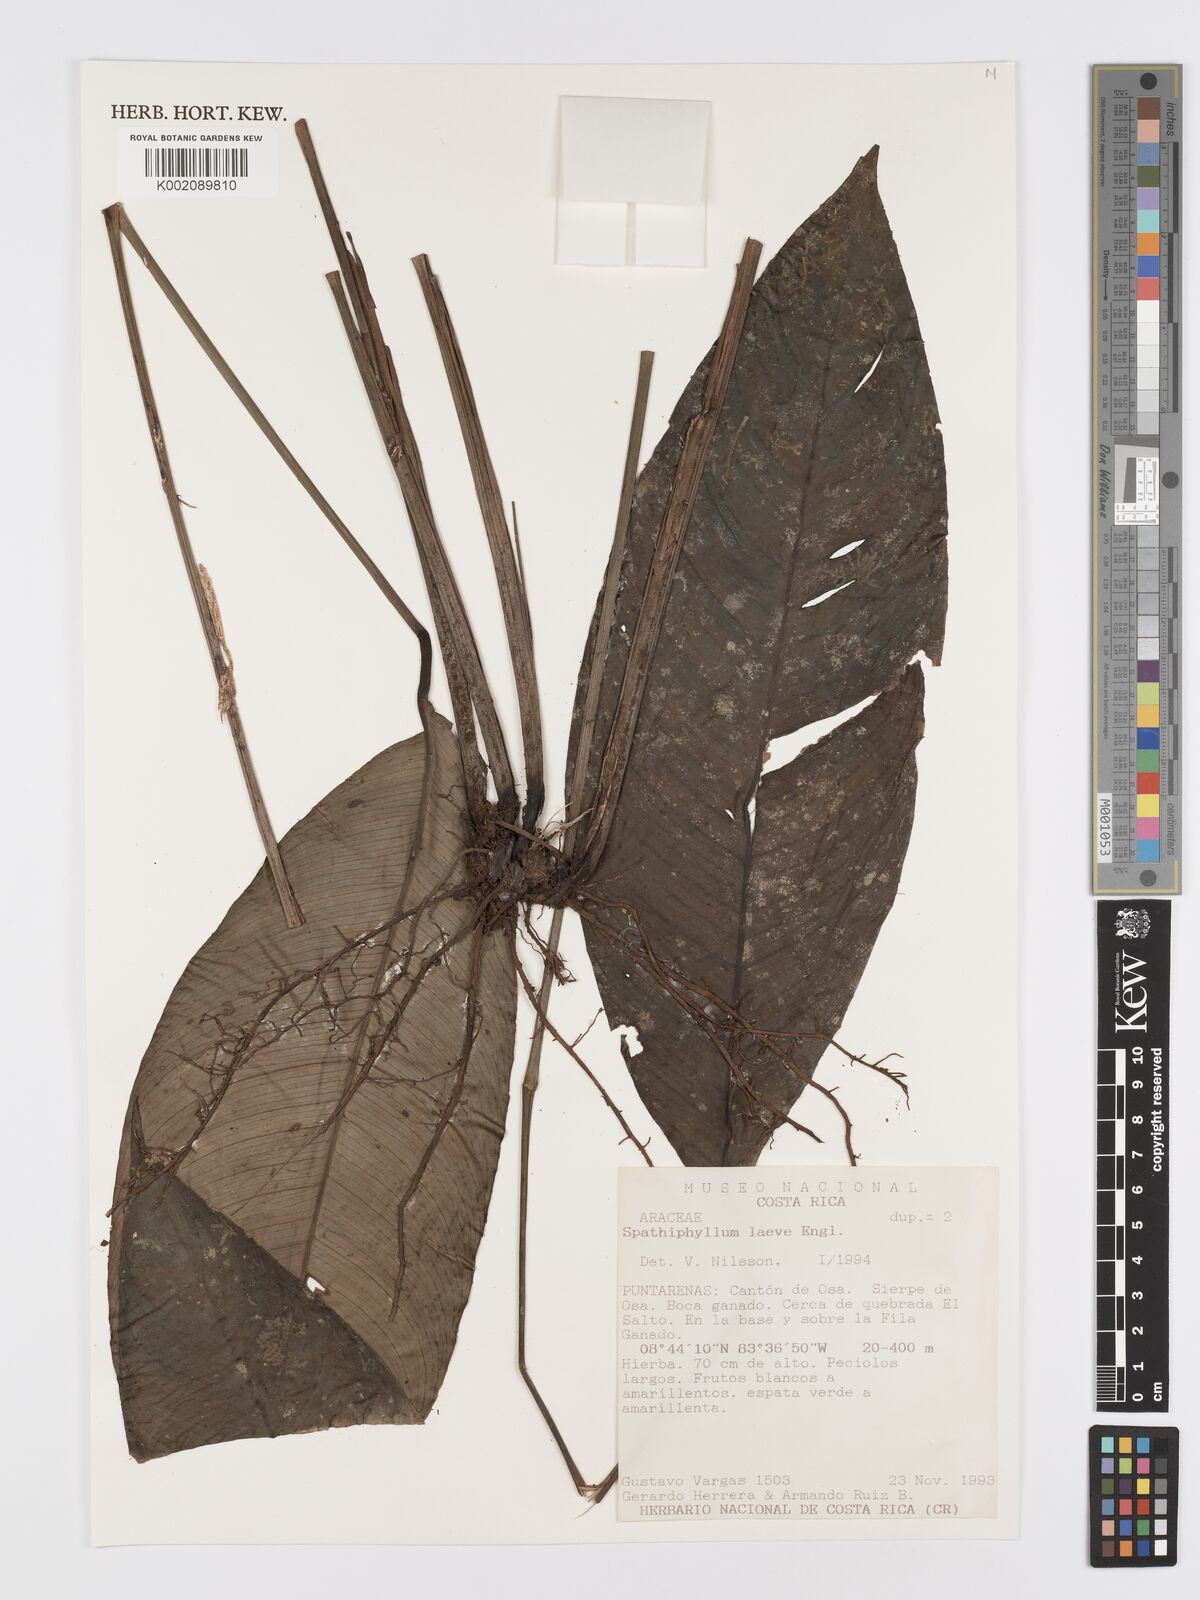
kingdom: Plantae
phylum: Tracheophyta
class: Liliopsida
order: Alismatales
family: Araceae
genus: Spathiphyllum
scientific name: Spathiphyllum laeve
